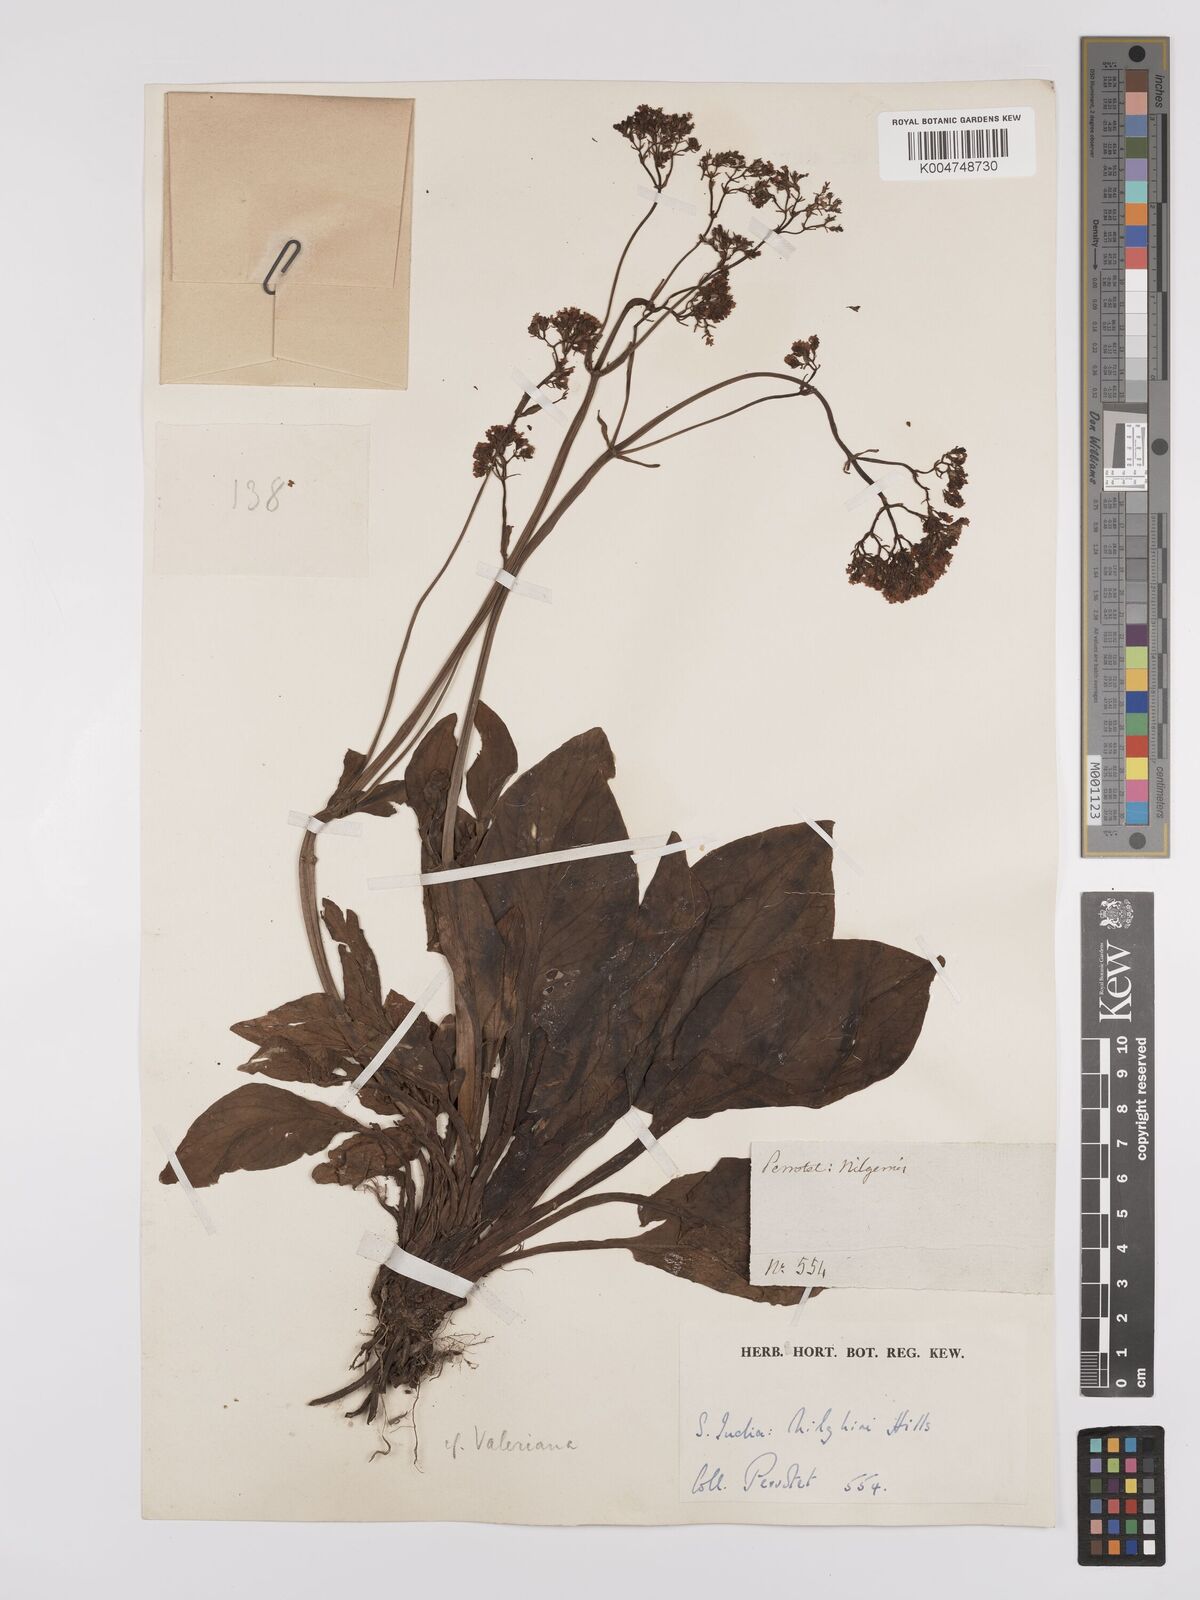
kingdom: Plantae
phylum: Tracheophyta
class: Magnoliopsida
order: Dipsacales
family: Caprifoliaceae
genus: Valeriana
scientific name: Valeriana leschenaultii
